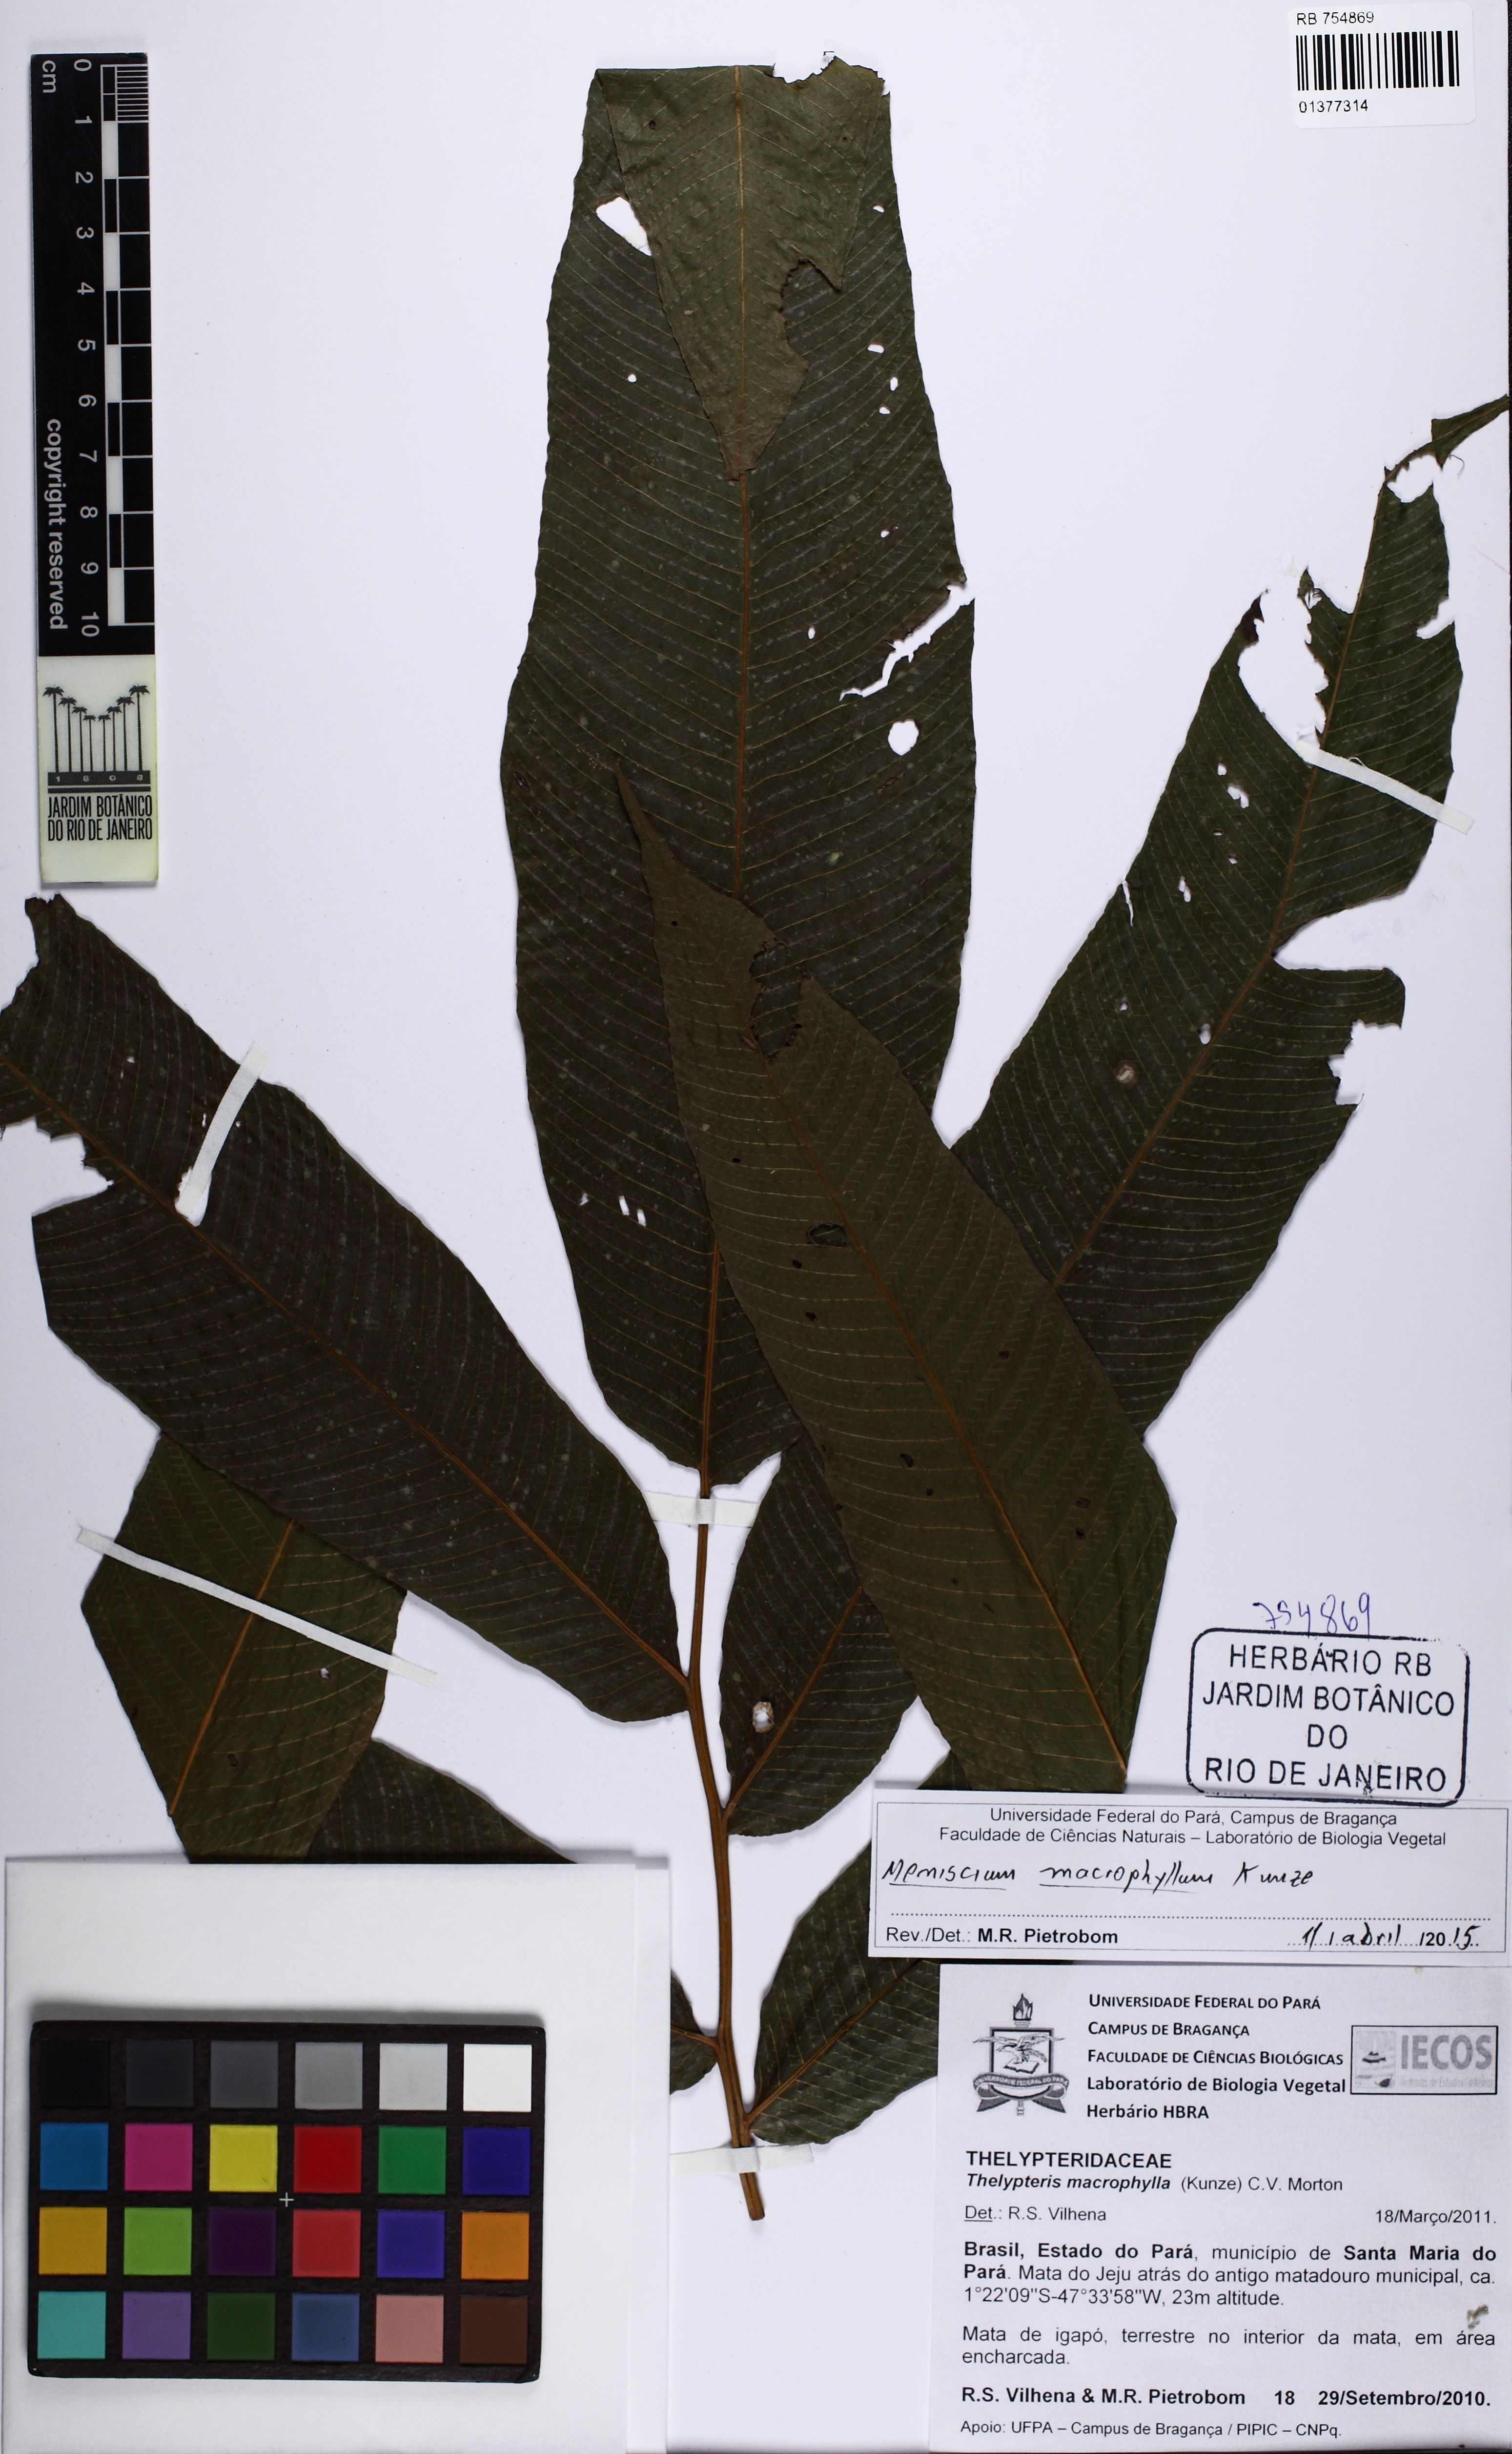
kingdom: Plantae
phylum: Tracheophyta
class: Polypodiopsida
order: Polypodiales
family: Thelypteridaceae
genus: Meniscium
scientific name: Meniscium macrophyllum
